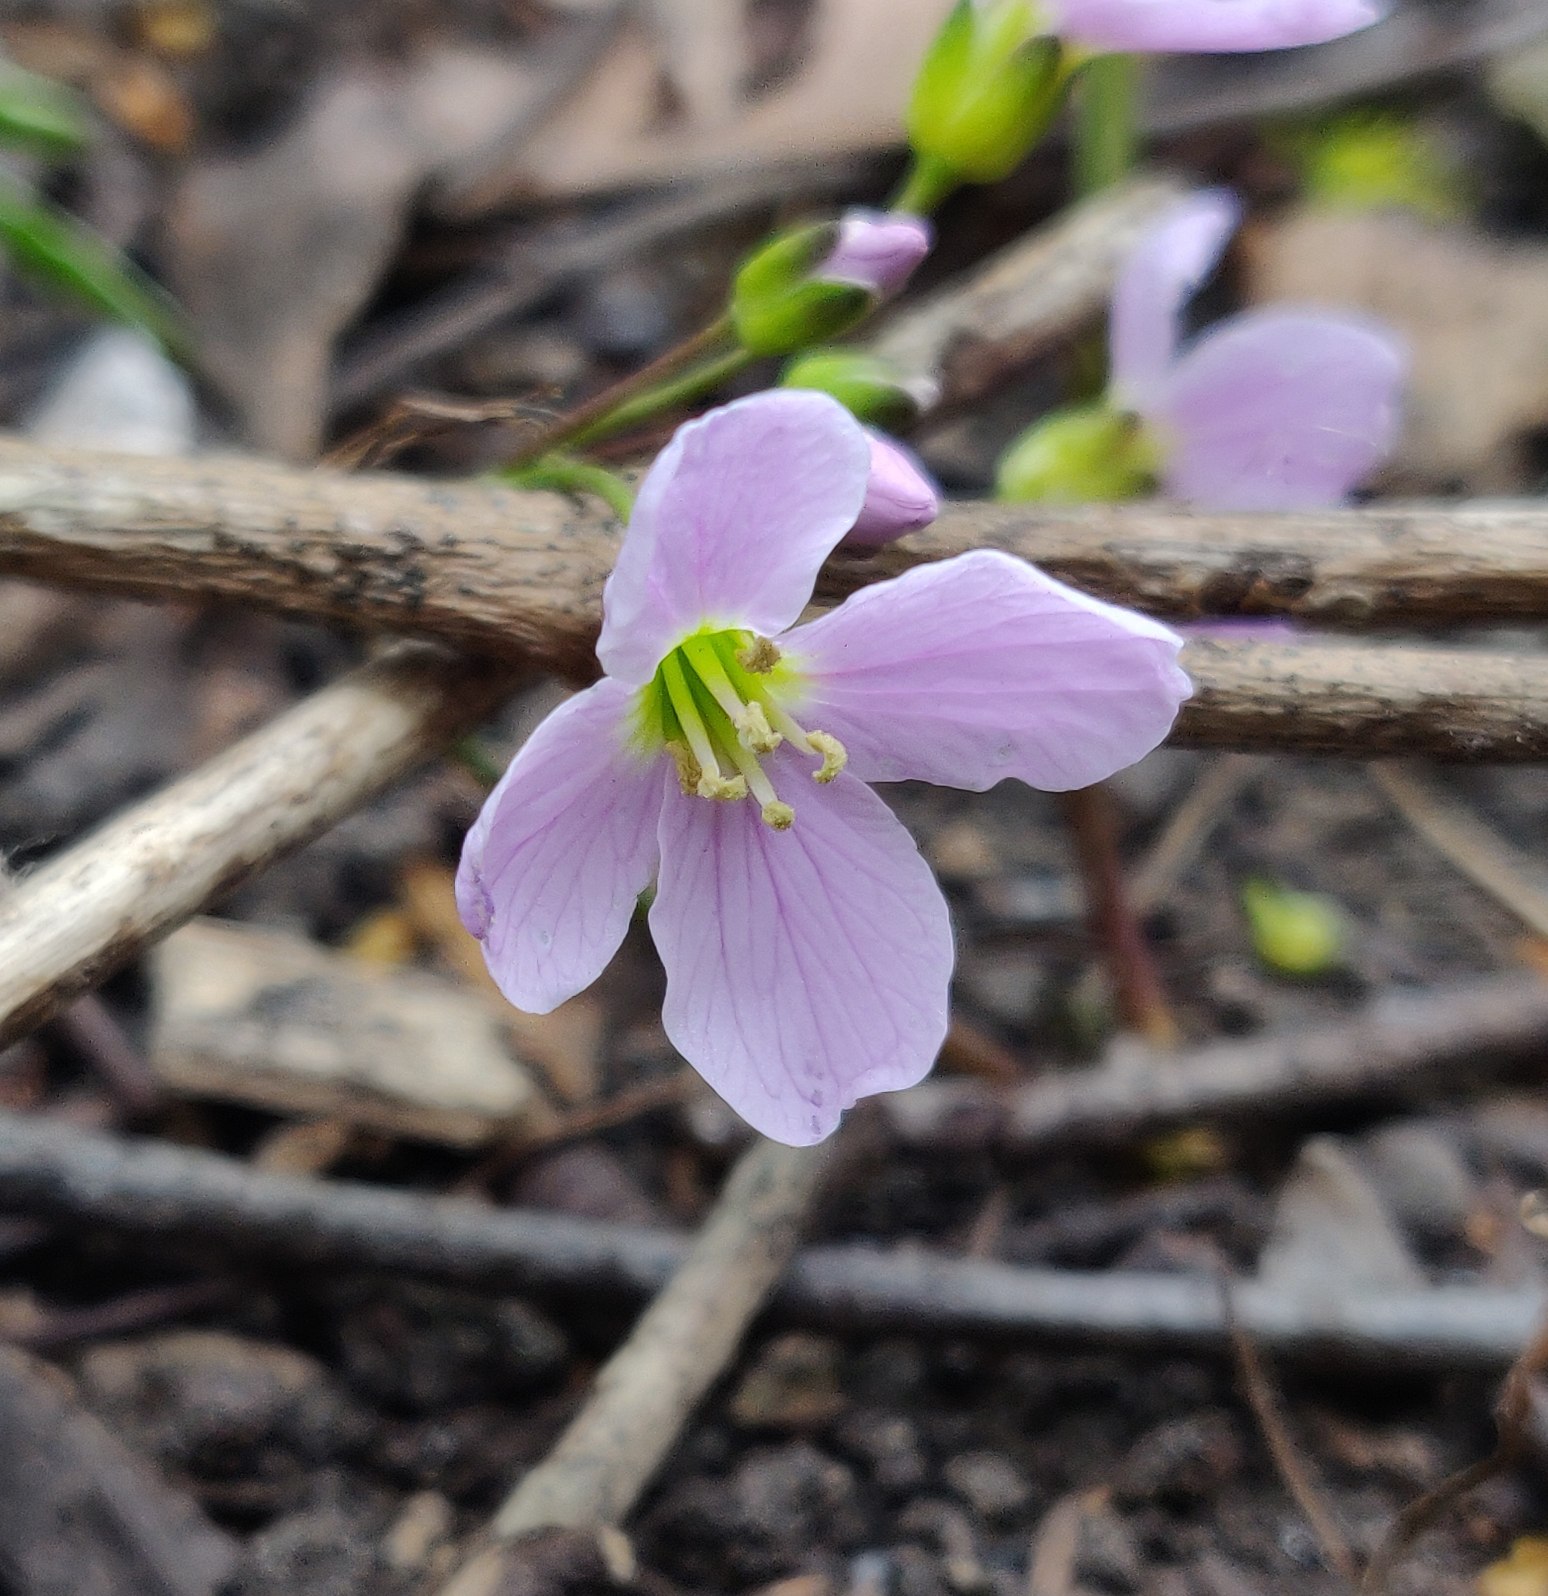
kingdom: Plantae
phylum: Tracheophyta
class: Magnoliopsida
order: Brassicales
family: Brassicaceae
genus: Cardamine
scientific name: Cardamine pratensis
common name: Engkarse
